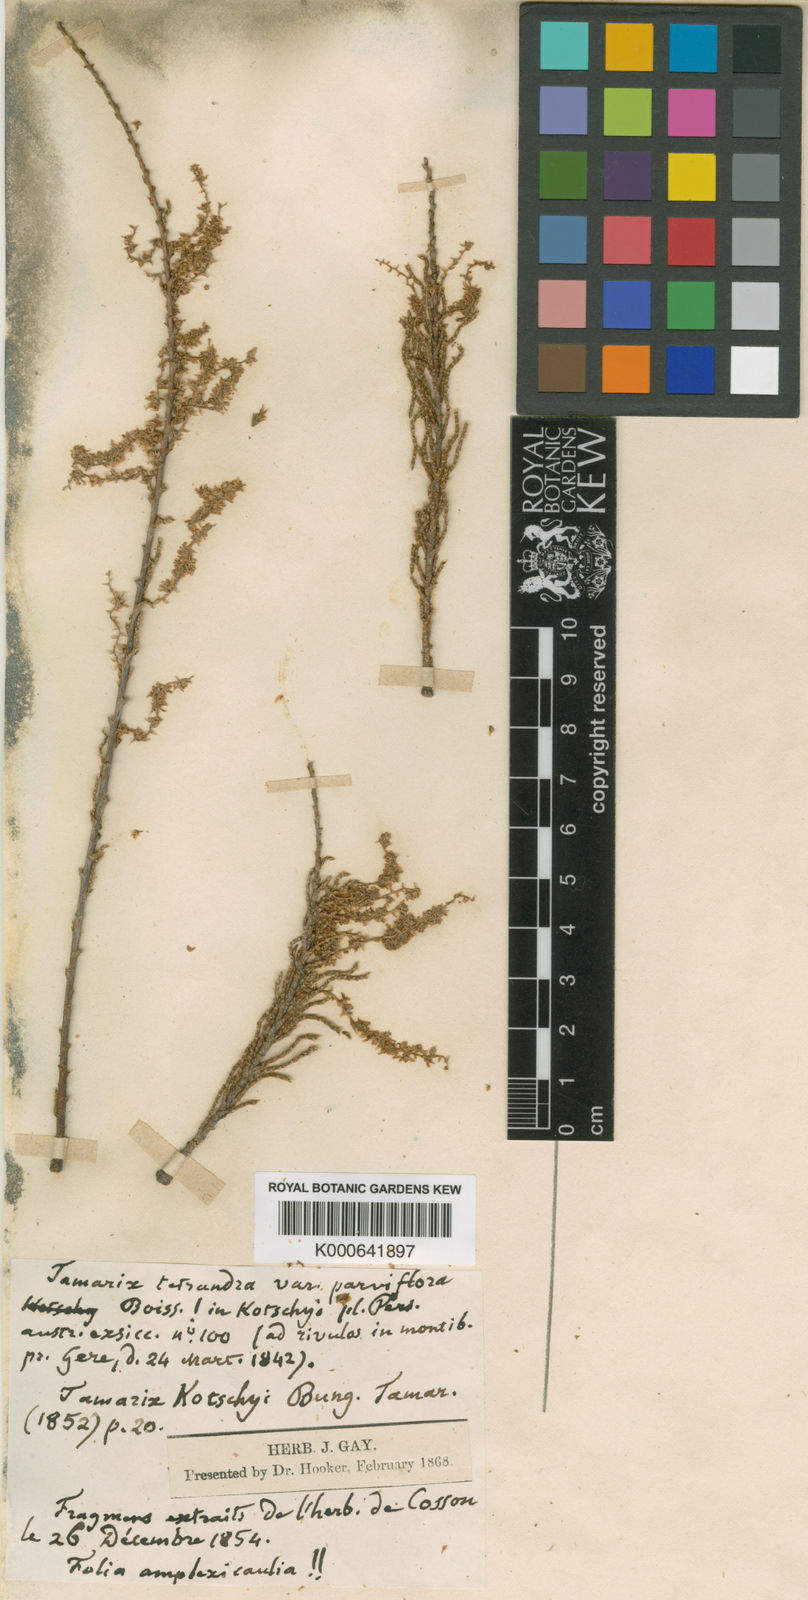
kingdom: Plantae
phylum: Tracheophyta
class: Magnoliopsida
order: Caryophyllales
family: Tamaricaceae
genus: Tamarix
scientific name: Tamarix kotschyi
